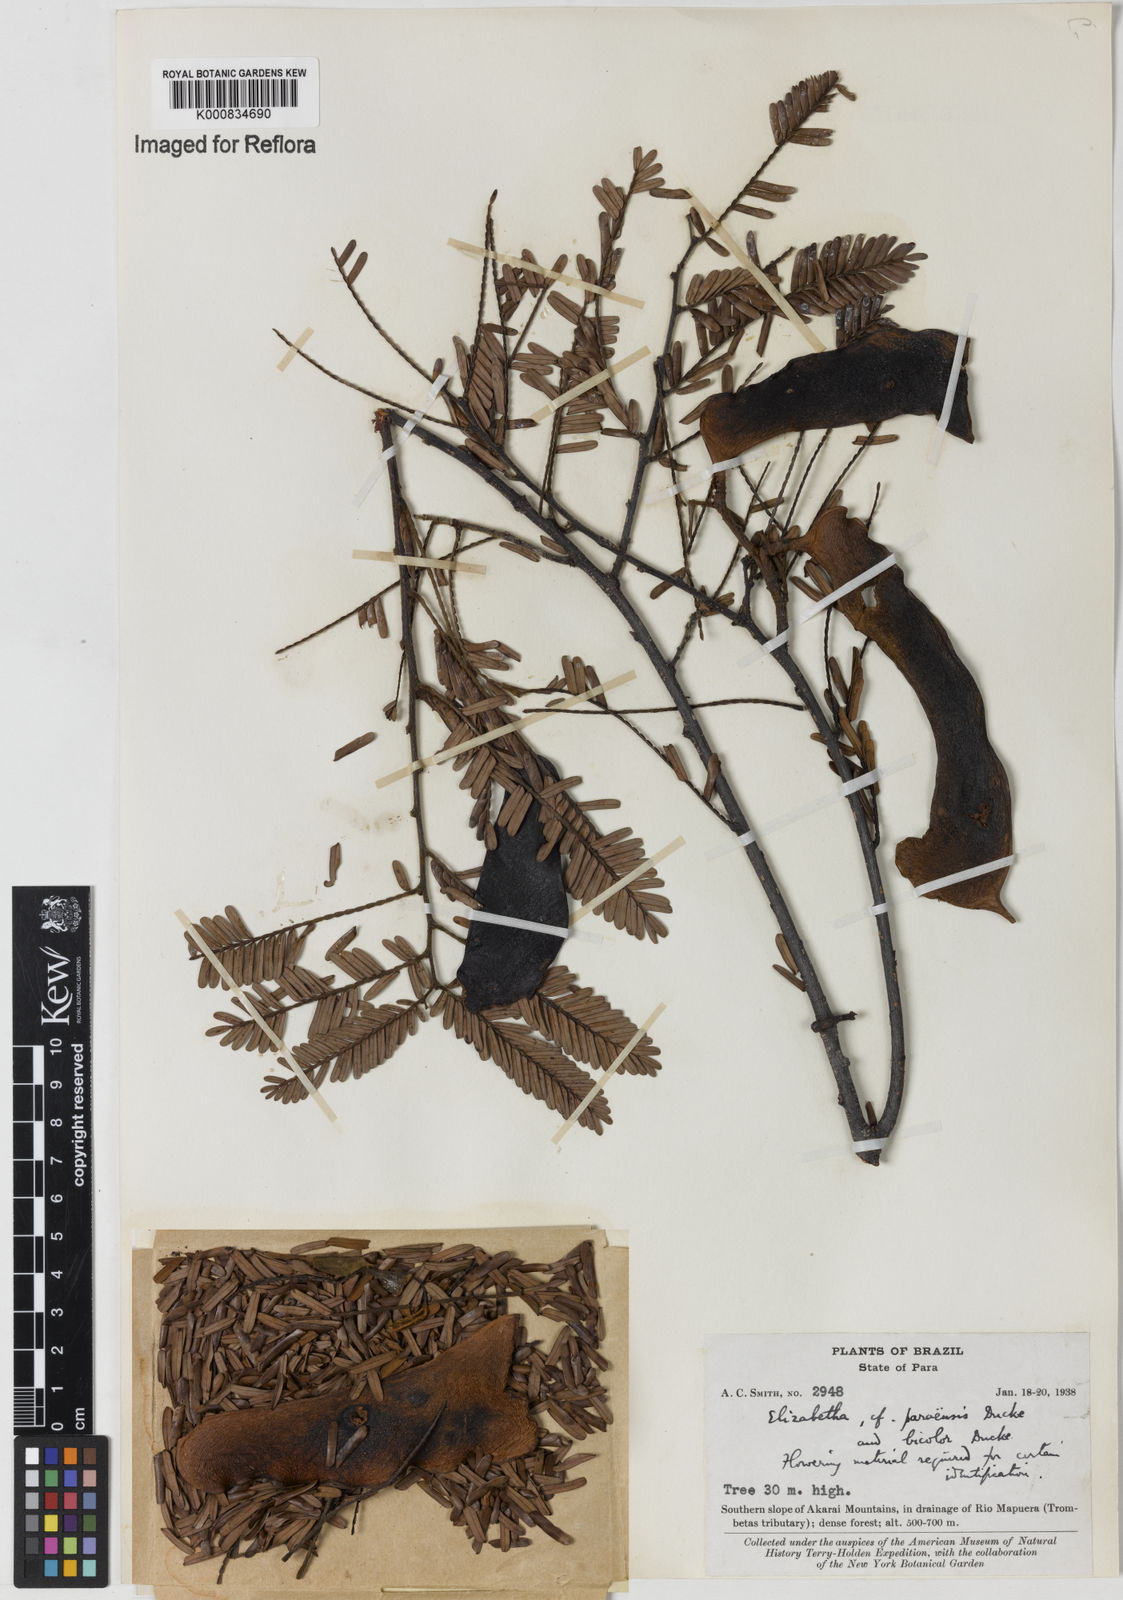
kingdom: Plantae
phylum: Tracheophyta
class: Magnoliopsida
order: Fabales
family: Fabaceae
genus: Paloue
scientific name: Paloue paraensis
